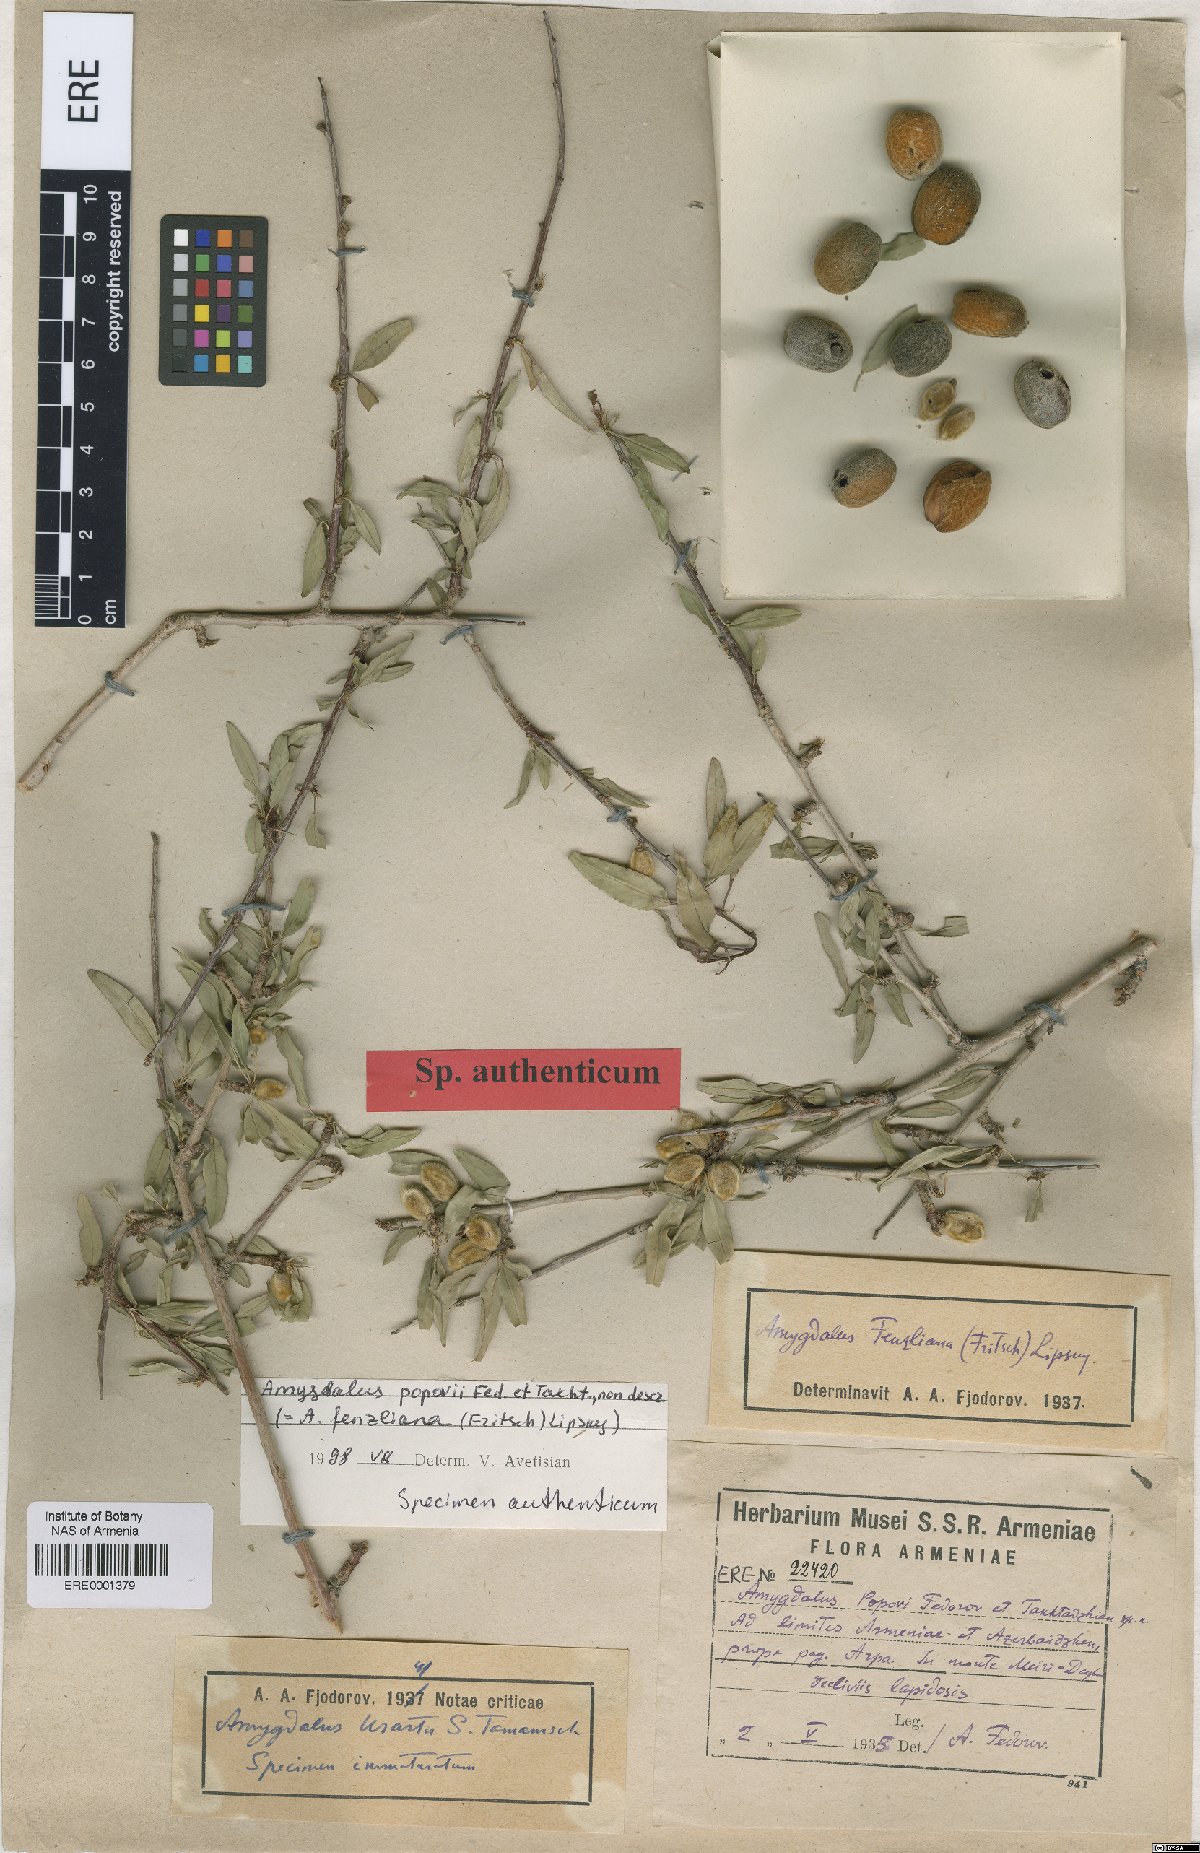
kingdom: Plantae
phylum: Tracheophyta
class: Magnoliopsida
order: Rosales
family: Rosaceae
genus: Prunus
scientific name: Prunus
